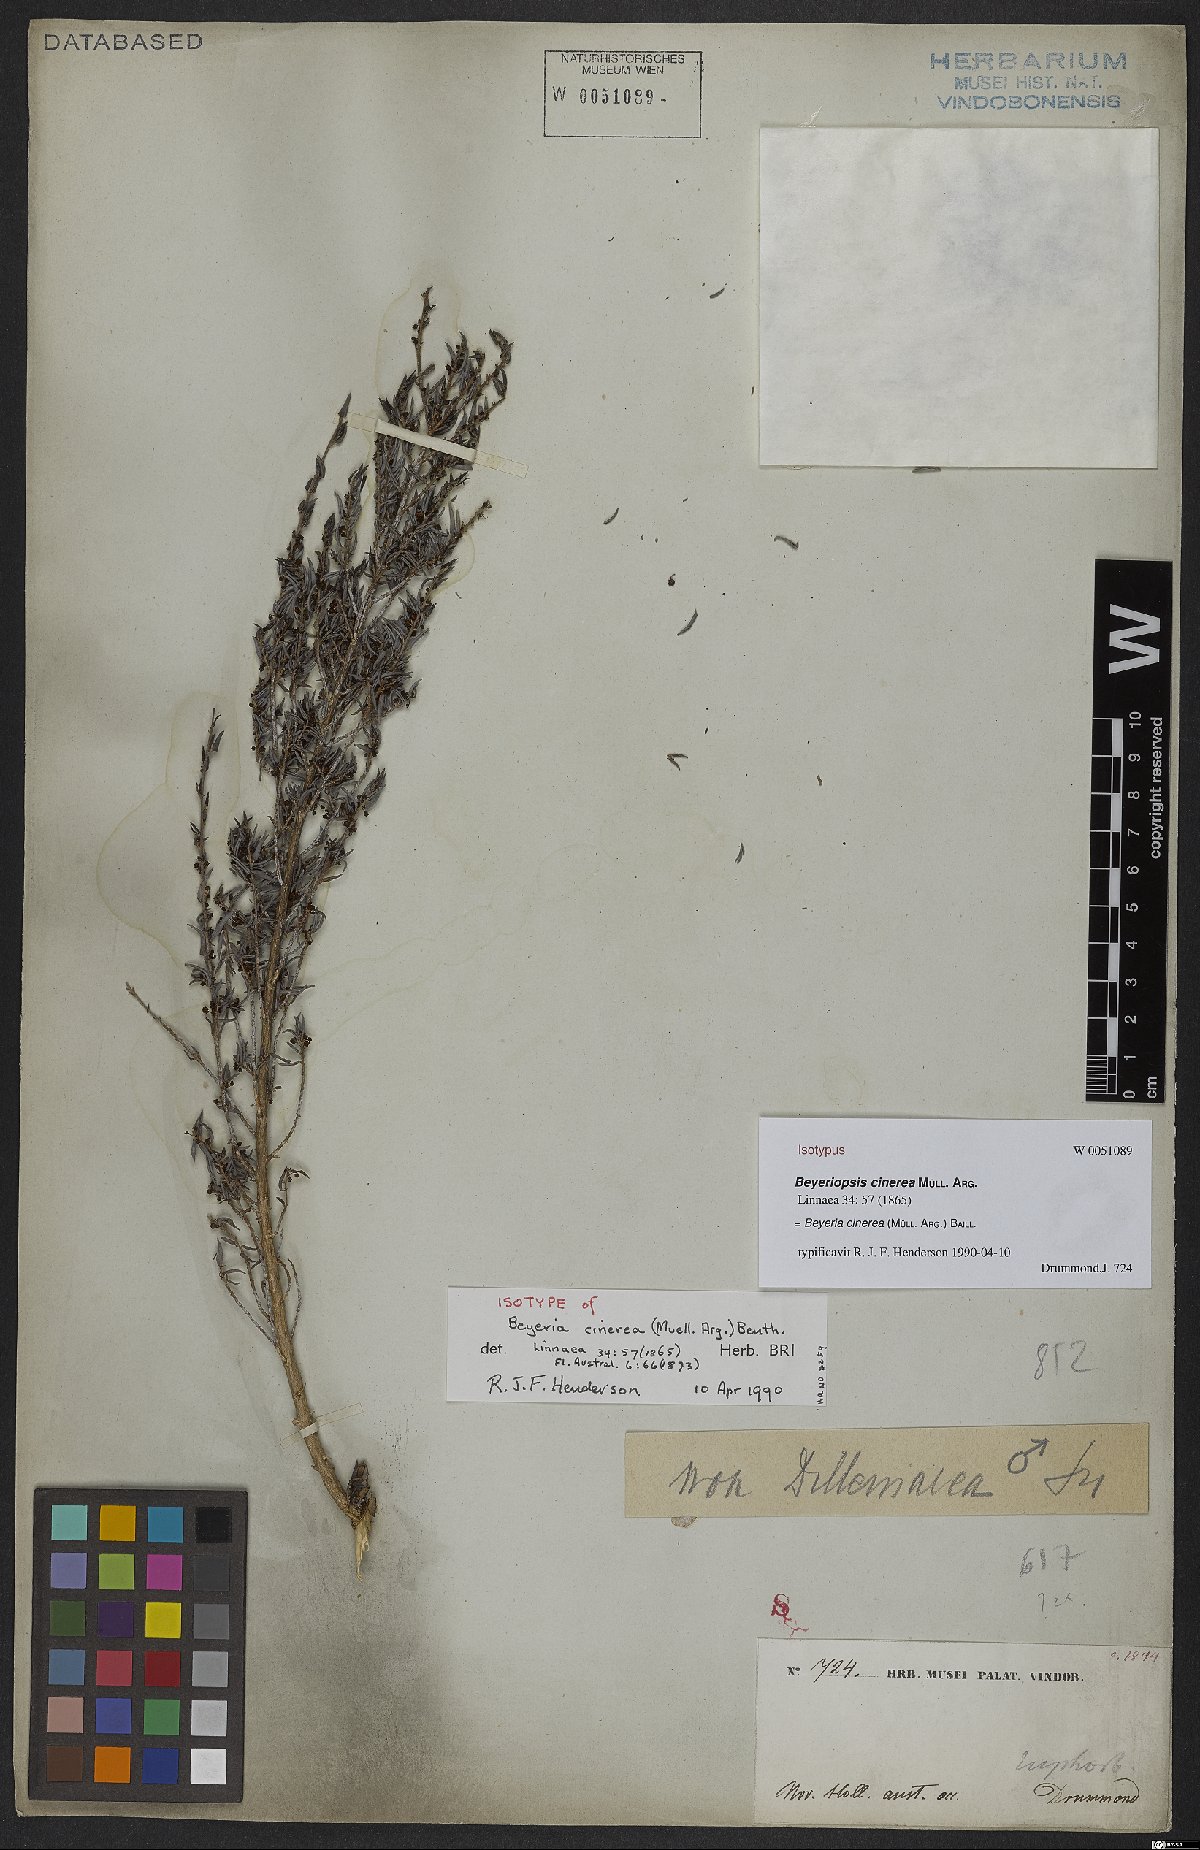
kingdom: Plantae
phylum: Tracheophyta
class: Magnoliopsida
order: Malpighiales
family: Euphorbiaceae
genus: Beyeria
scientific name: Beyeria cinerea
